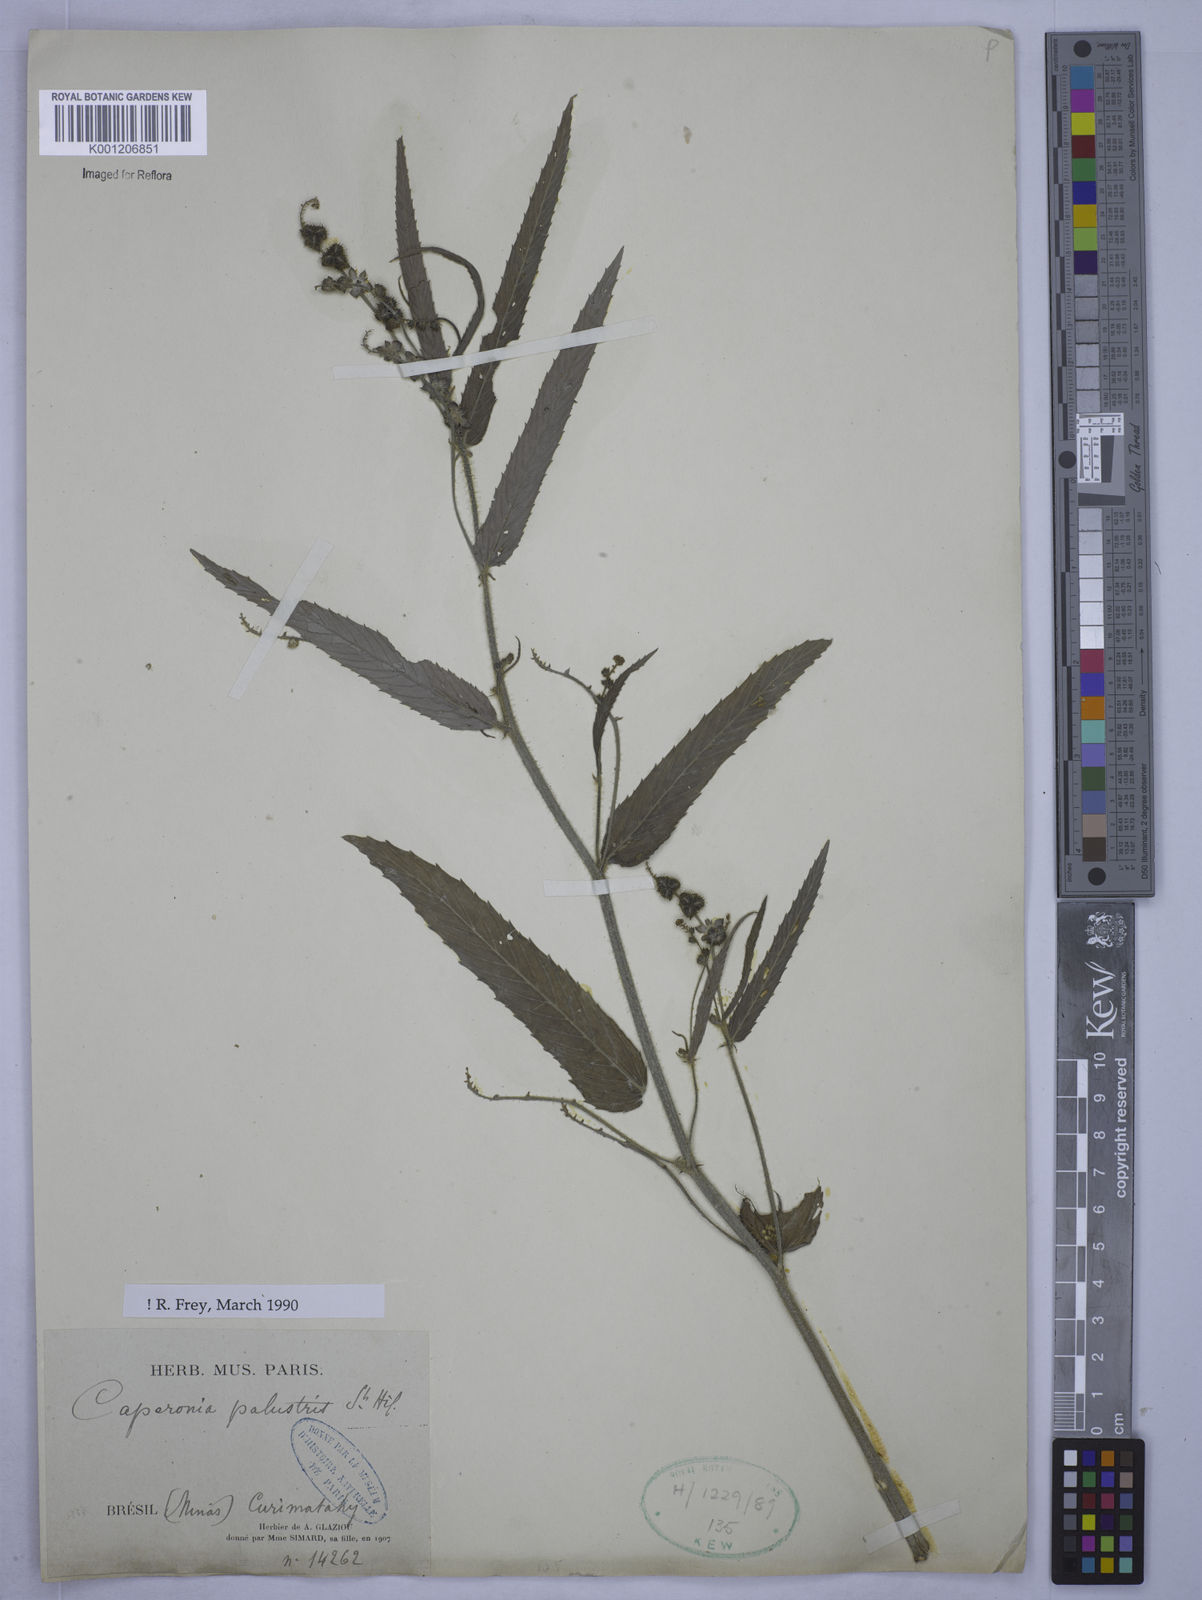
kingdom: Plantae
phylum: Tracheophyta
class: Magnoliopsida
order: Malpighiales
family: Euphorbiaceae
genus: Caperonia
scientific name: Caperonia palustris
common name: Sacatrapo
